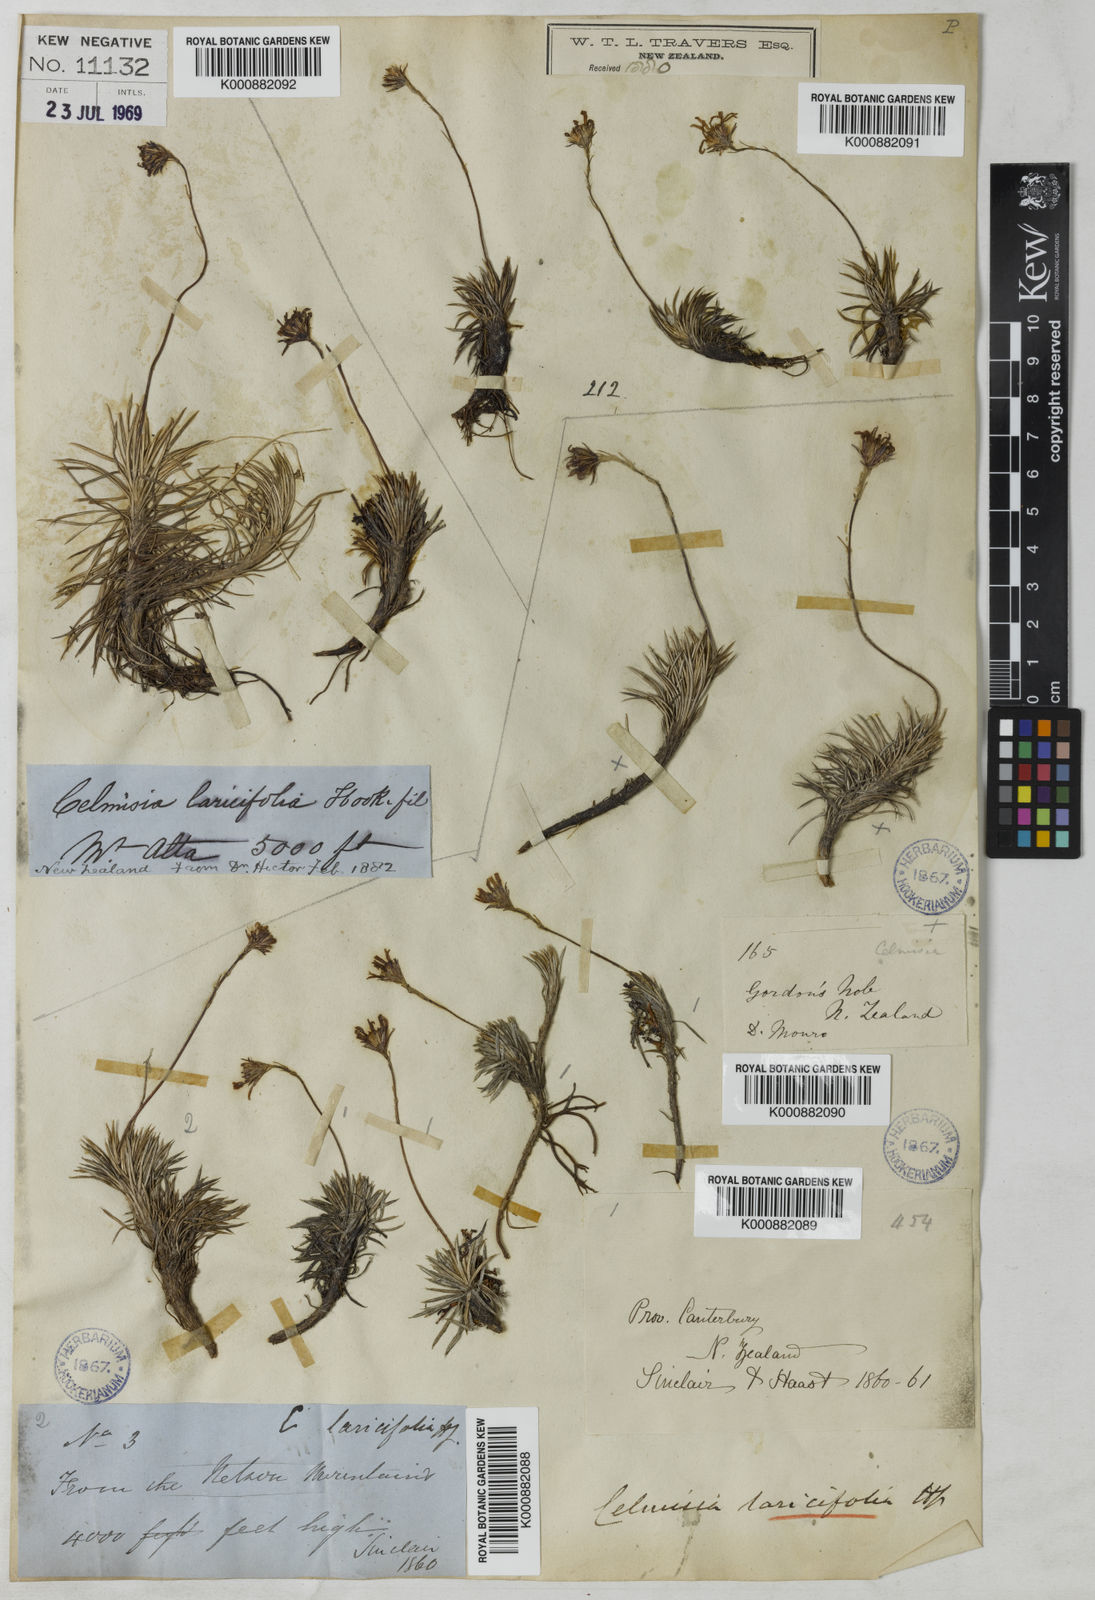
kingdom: Plantae
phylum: Tracheophyta
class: Magnoliopsida
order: Asterales
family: Asteraceae
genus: Celmisia
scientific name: Celmisia laricifolia
